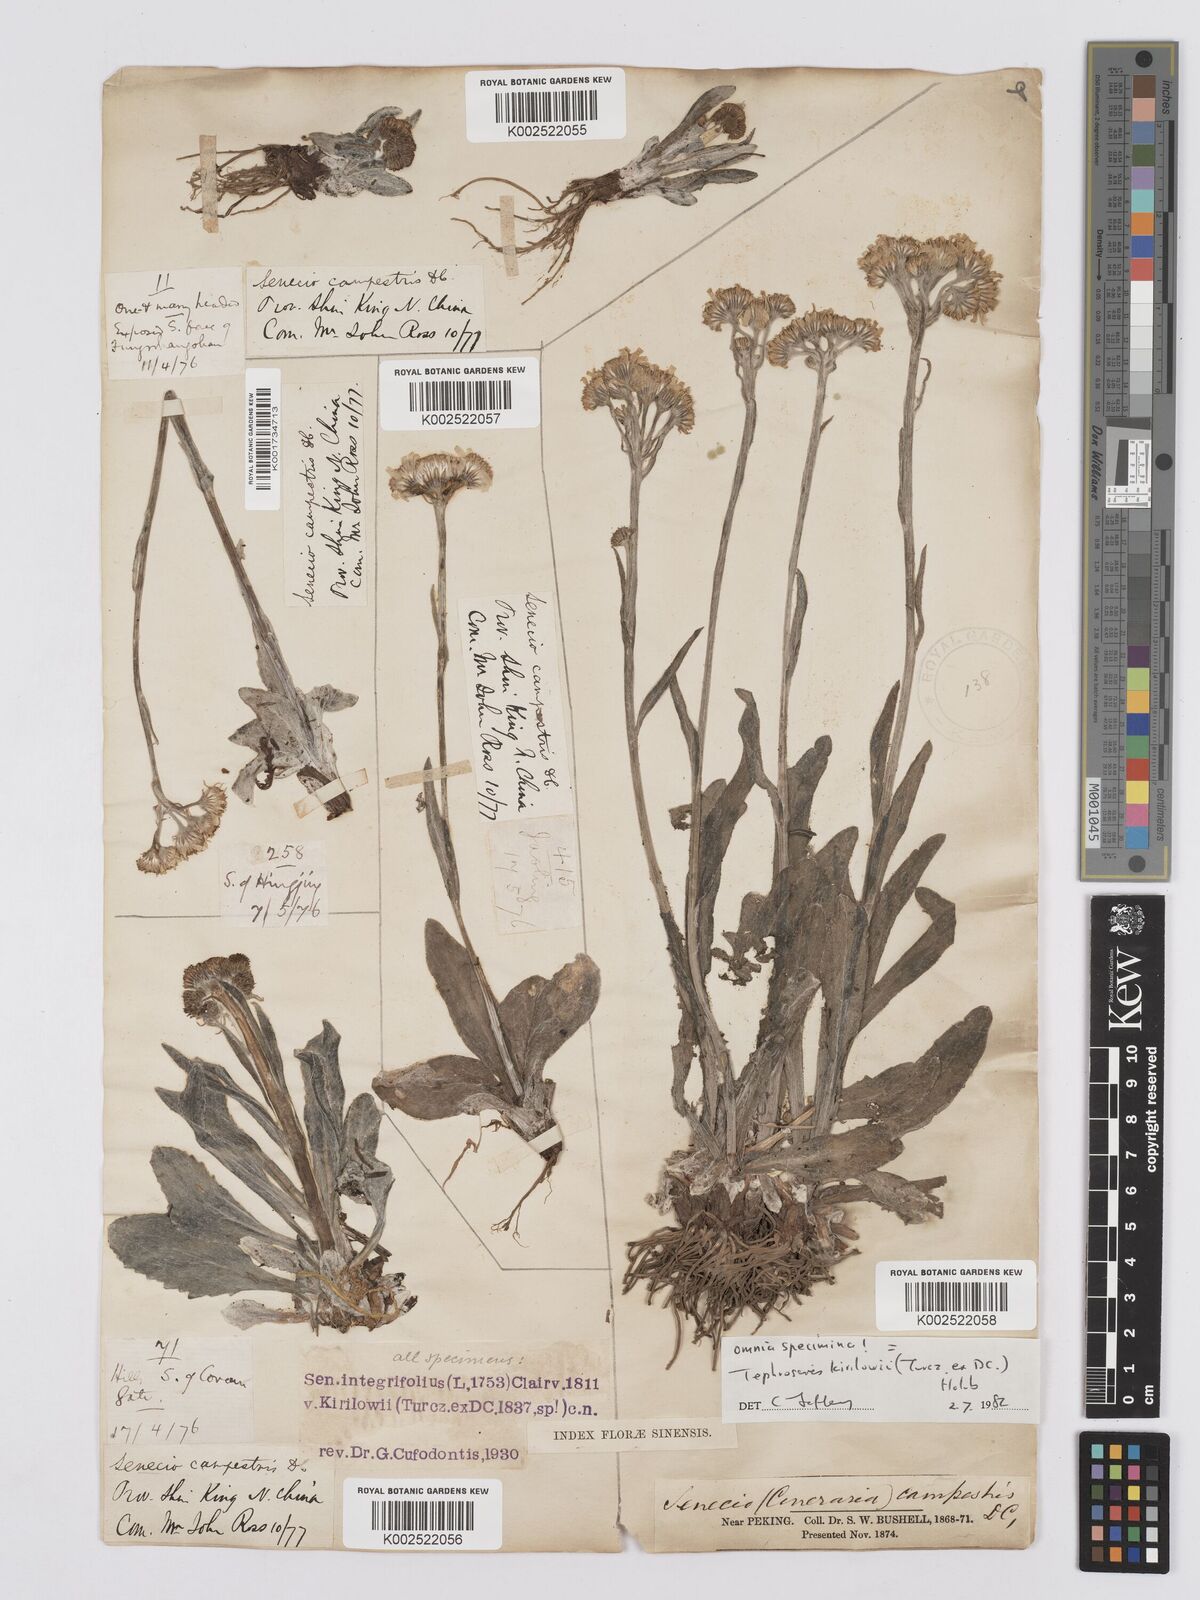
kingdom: Plantae
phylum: Tracheophyta
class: Magnoliopsida
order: Asterales
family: Asteraceae
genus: Tephroseris
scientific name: Tephroseris kirilowii
